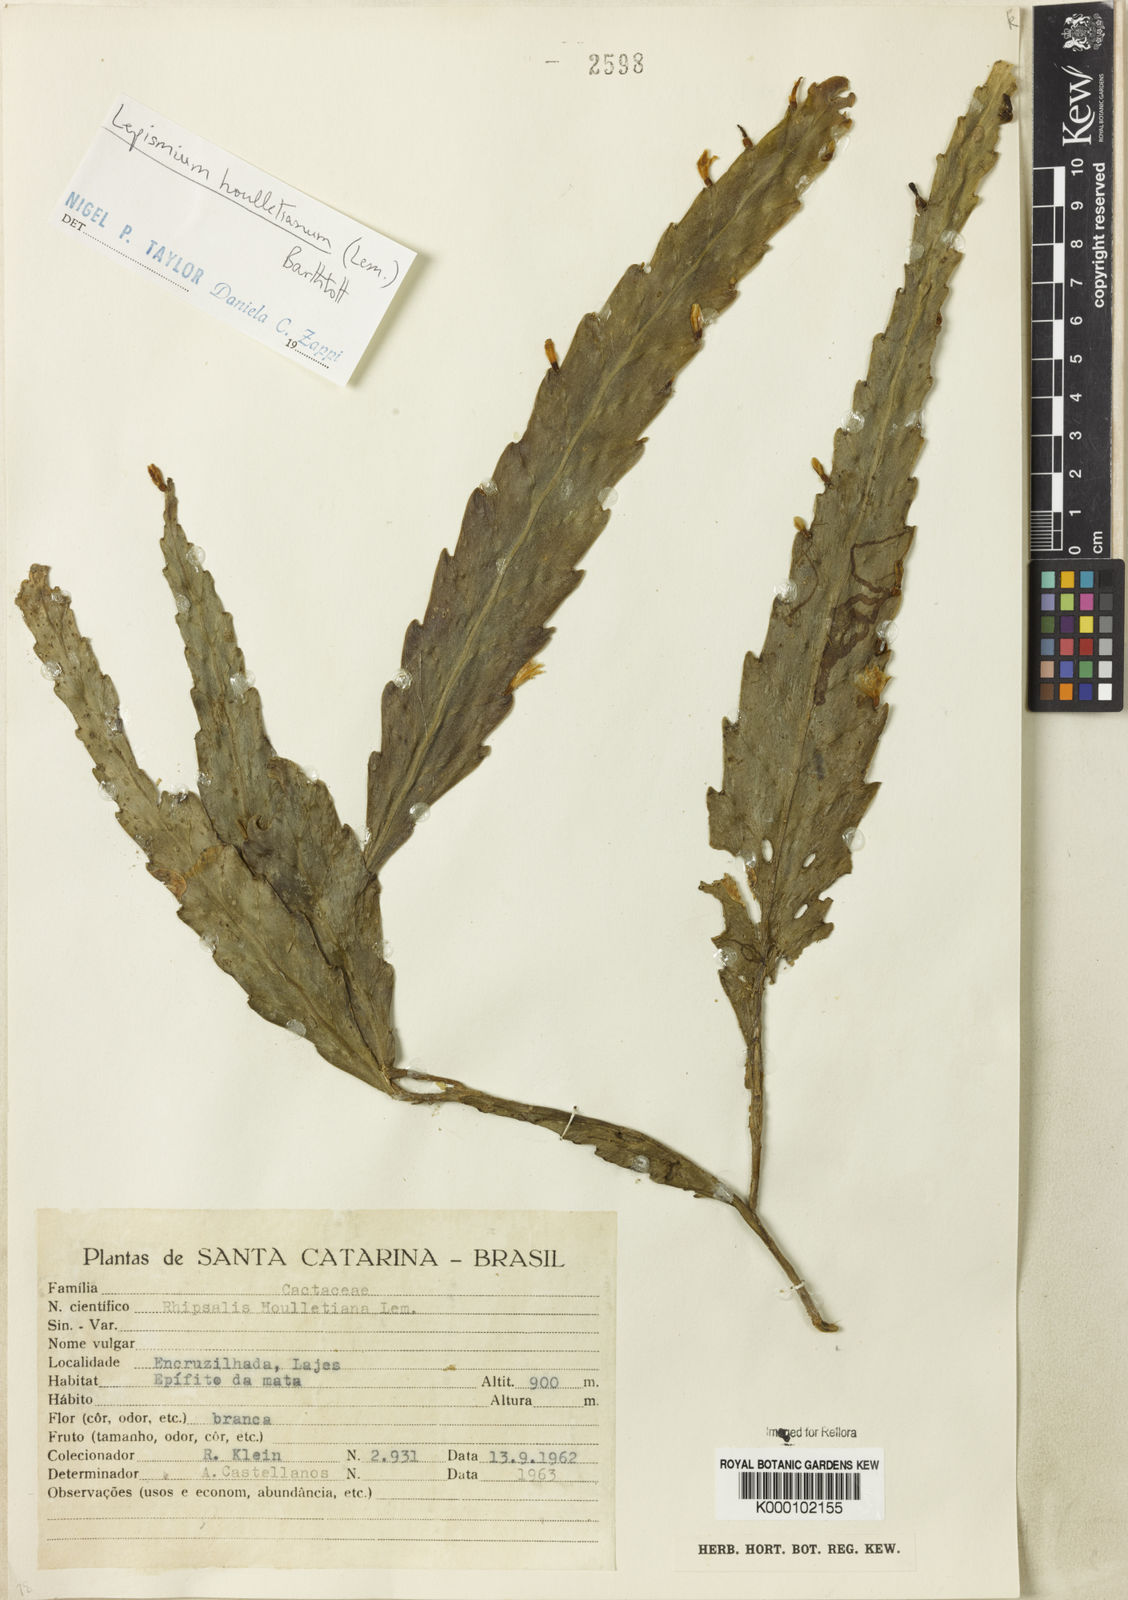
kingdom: Plantae
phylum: Tracheophyta
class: Magnoliopsida
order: Caryophyllales
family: Cactaceae
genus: Lepismium
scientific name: Lepismium houlletianum
